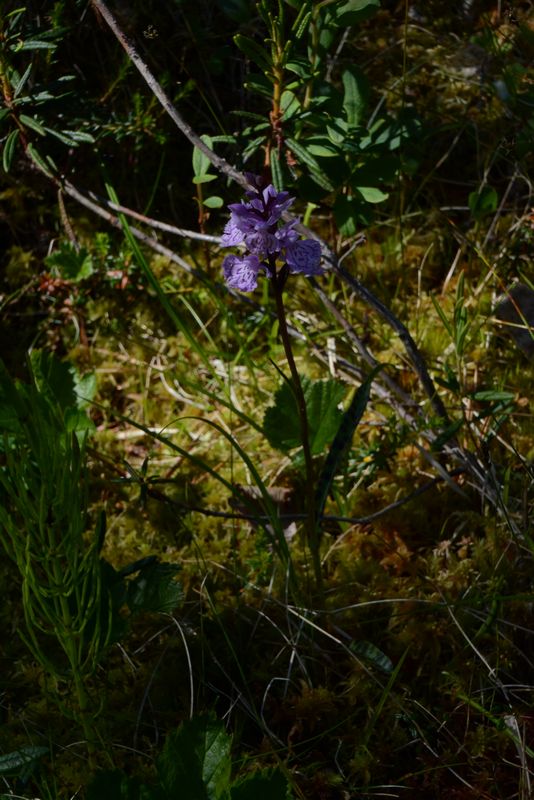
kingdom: Plantae
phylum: Tracheophyta
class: Liliopsida
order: Asparagales
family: Orchidaceae
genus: Dactylorhiza
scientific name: Dactylorhiza maculata
